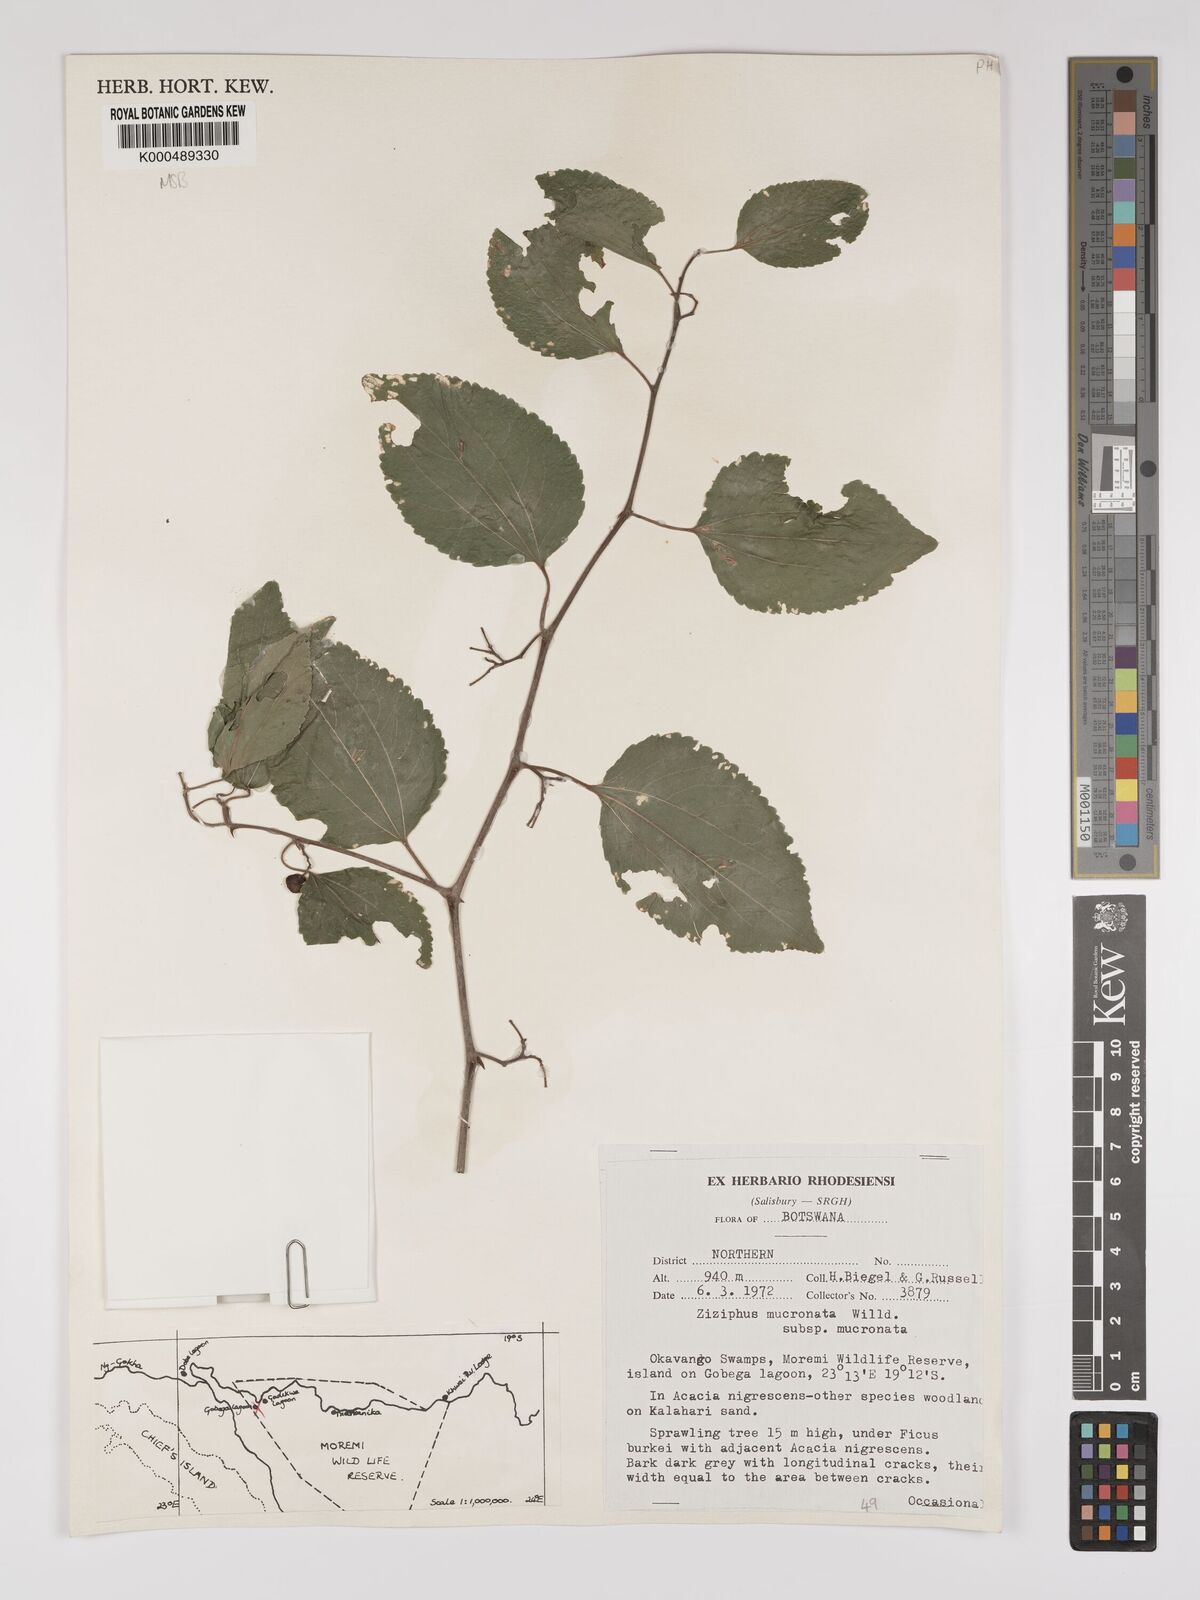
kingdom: Plantae
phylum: Tracheophyta
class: Magnoliopsida
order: Rosales
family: Rhamnaceae
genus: Ziziphus
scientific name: Ziziphus mucronata
